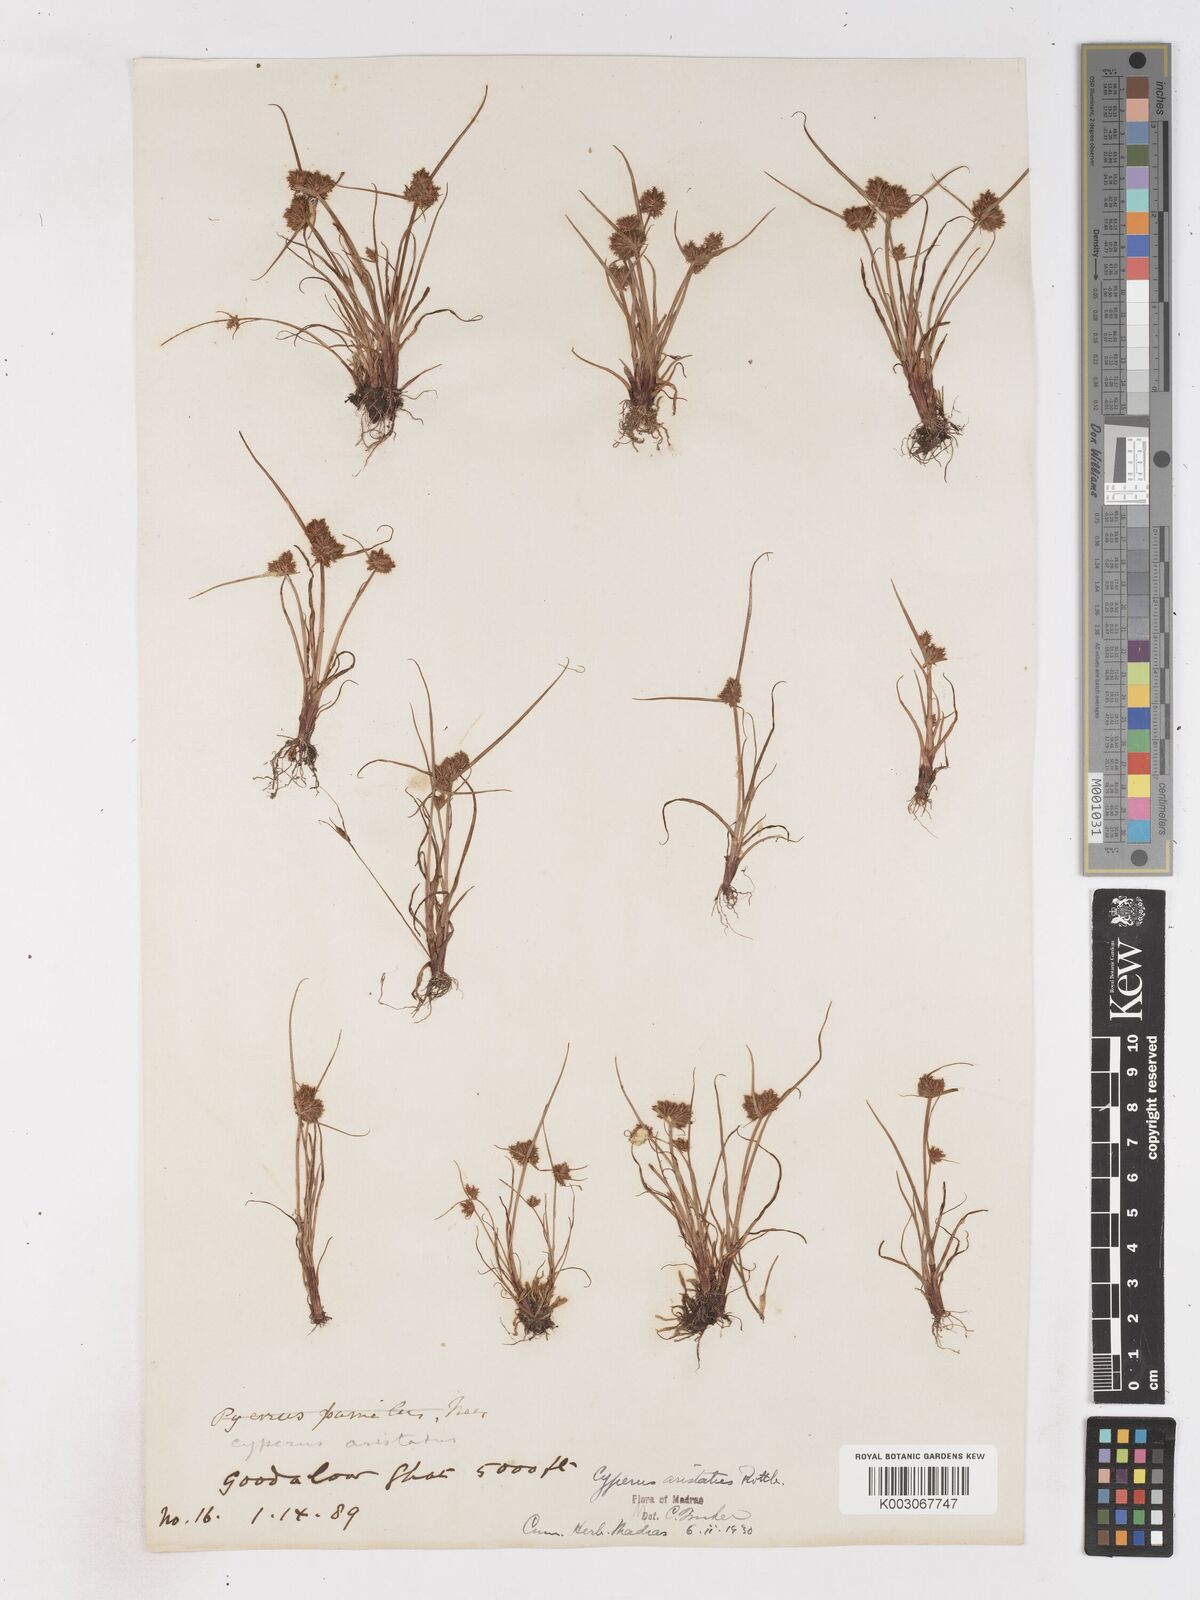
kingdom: Plantae
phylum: Tracheophyta
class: Liliopsida
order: Poales
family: Cyperaceae
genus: Cyperus
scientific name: Cyperus squarrosus
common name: Awned cyperus
